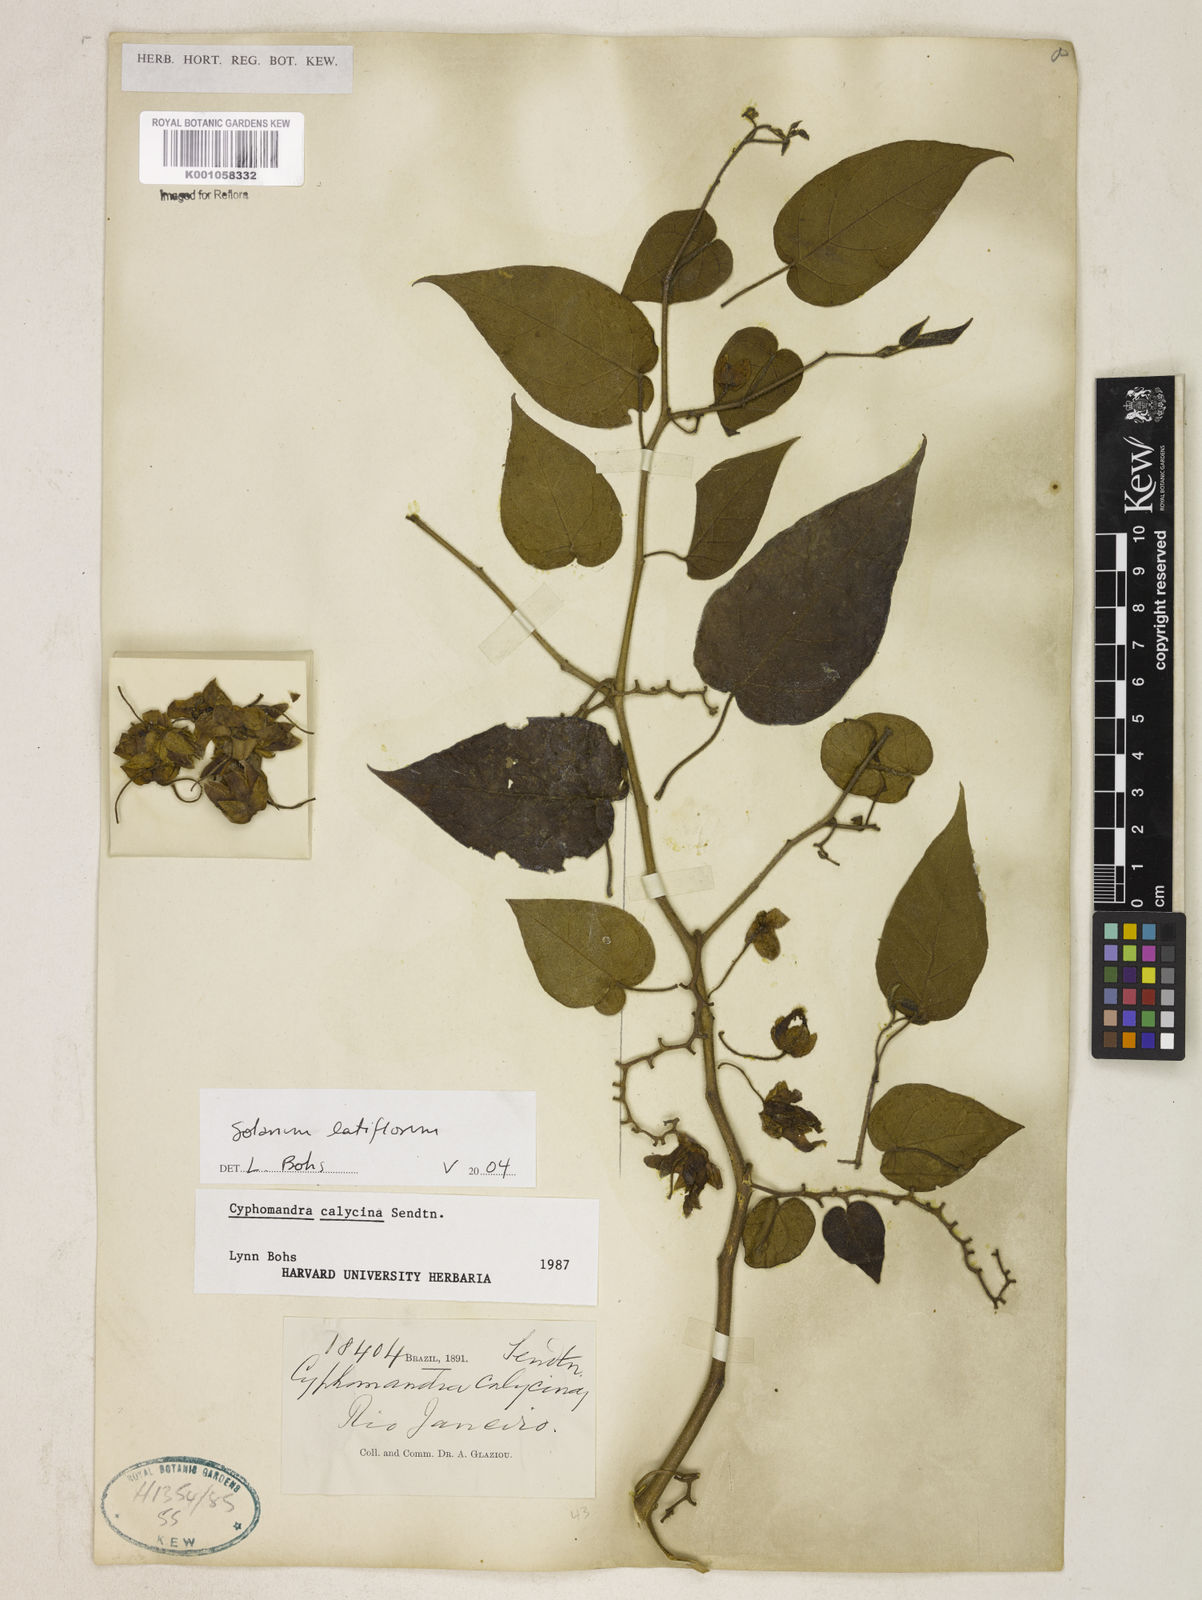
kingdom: Plantae
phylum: Tracheophyta
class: Magnoliopsida
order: Solanales
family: Solanaceae
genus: Solanum
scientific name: Solanum latiflorum
